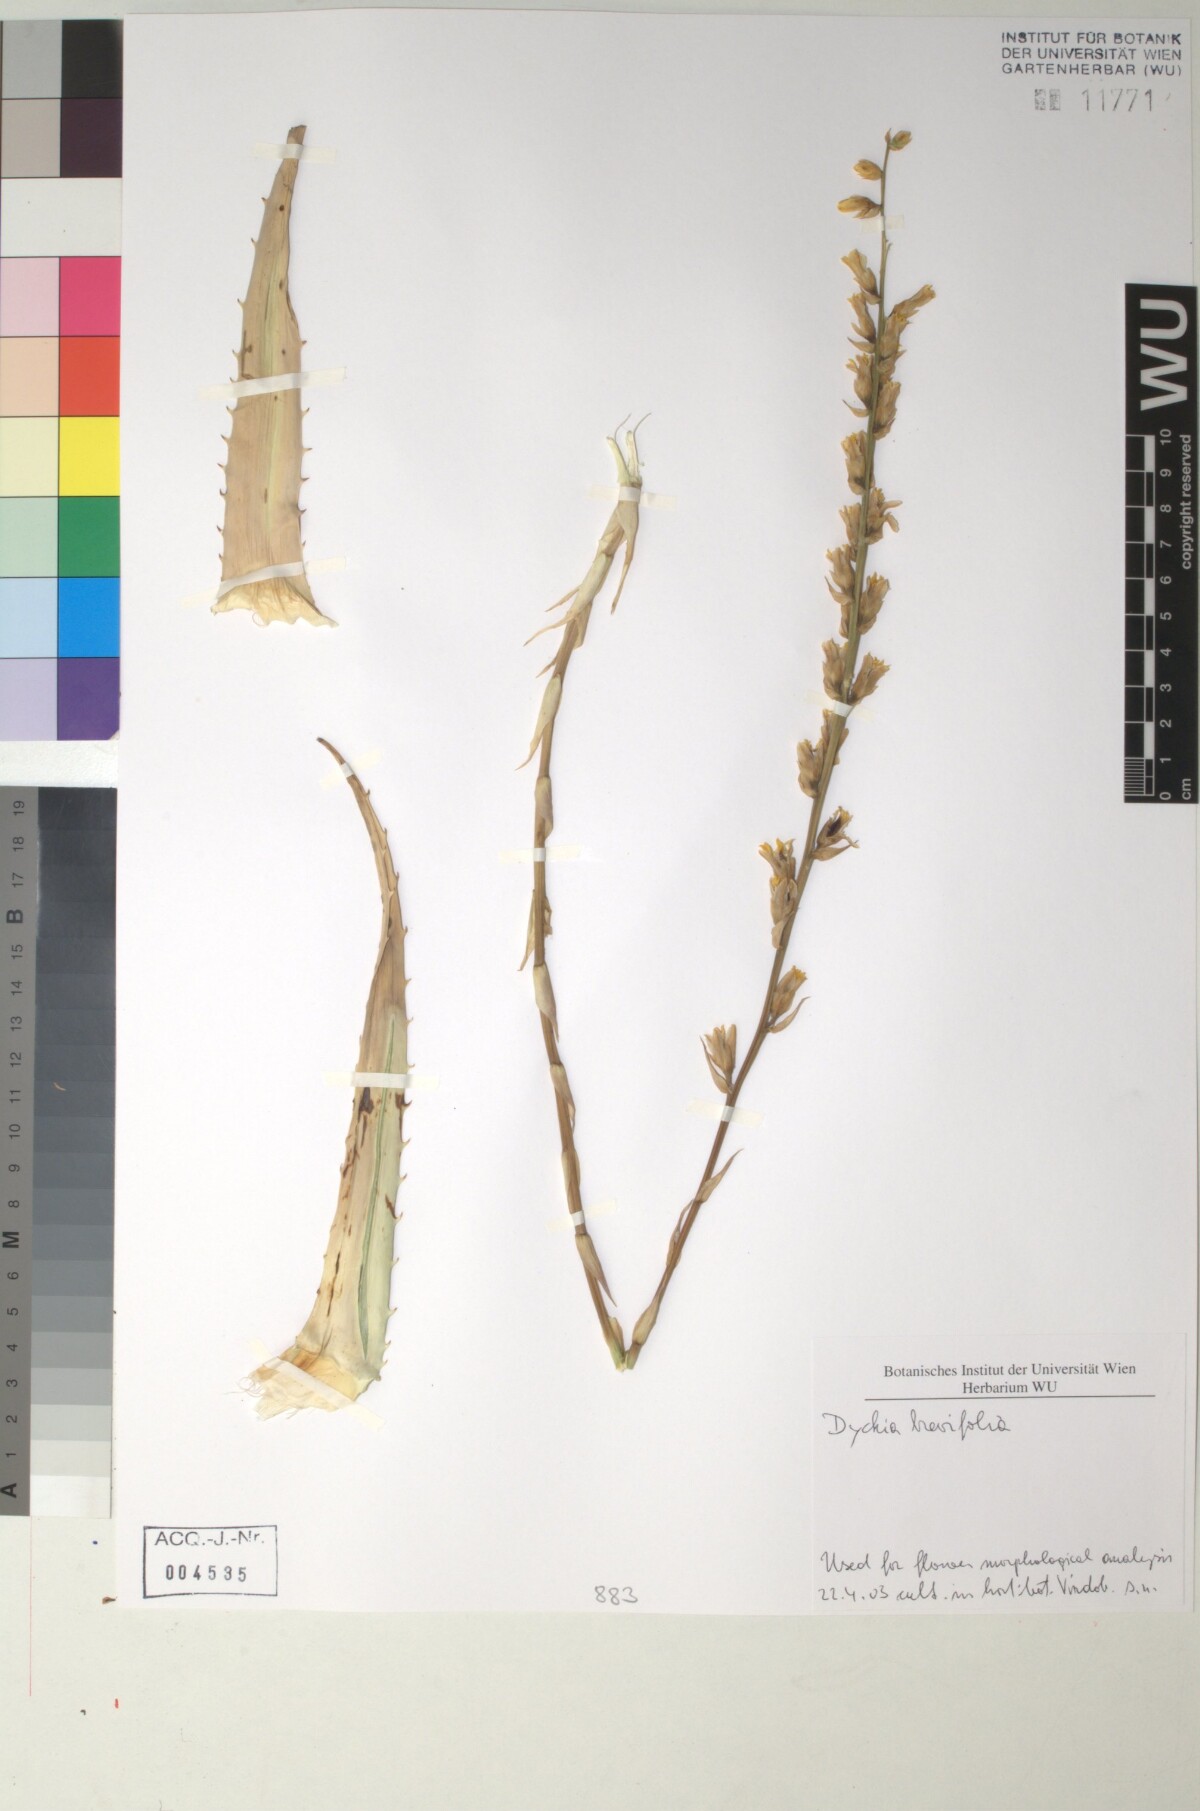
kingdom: Plantae
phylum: Tracheophyta
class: Liliopsida
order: Poales
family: Bromeliaceae
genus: Dyckia
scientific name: Dyckia brevifolia
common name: Sawblade
